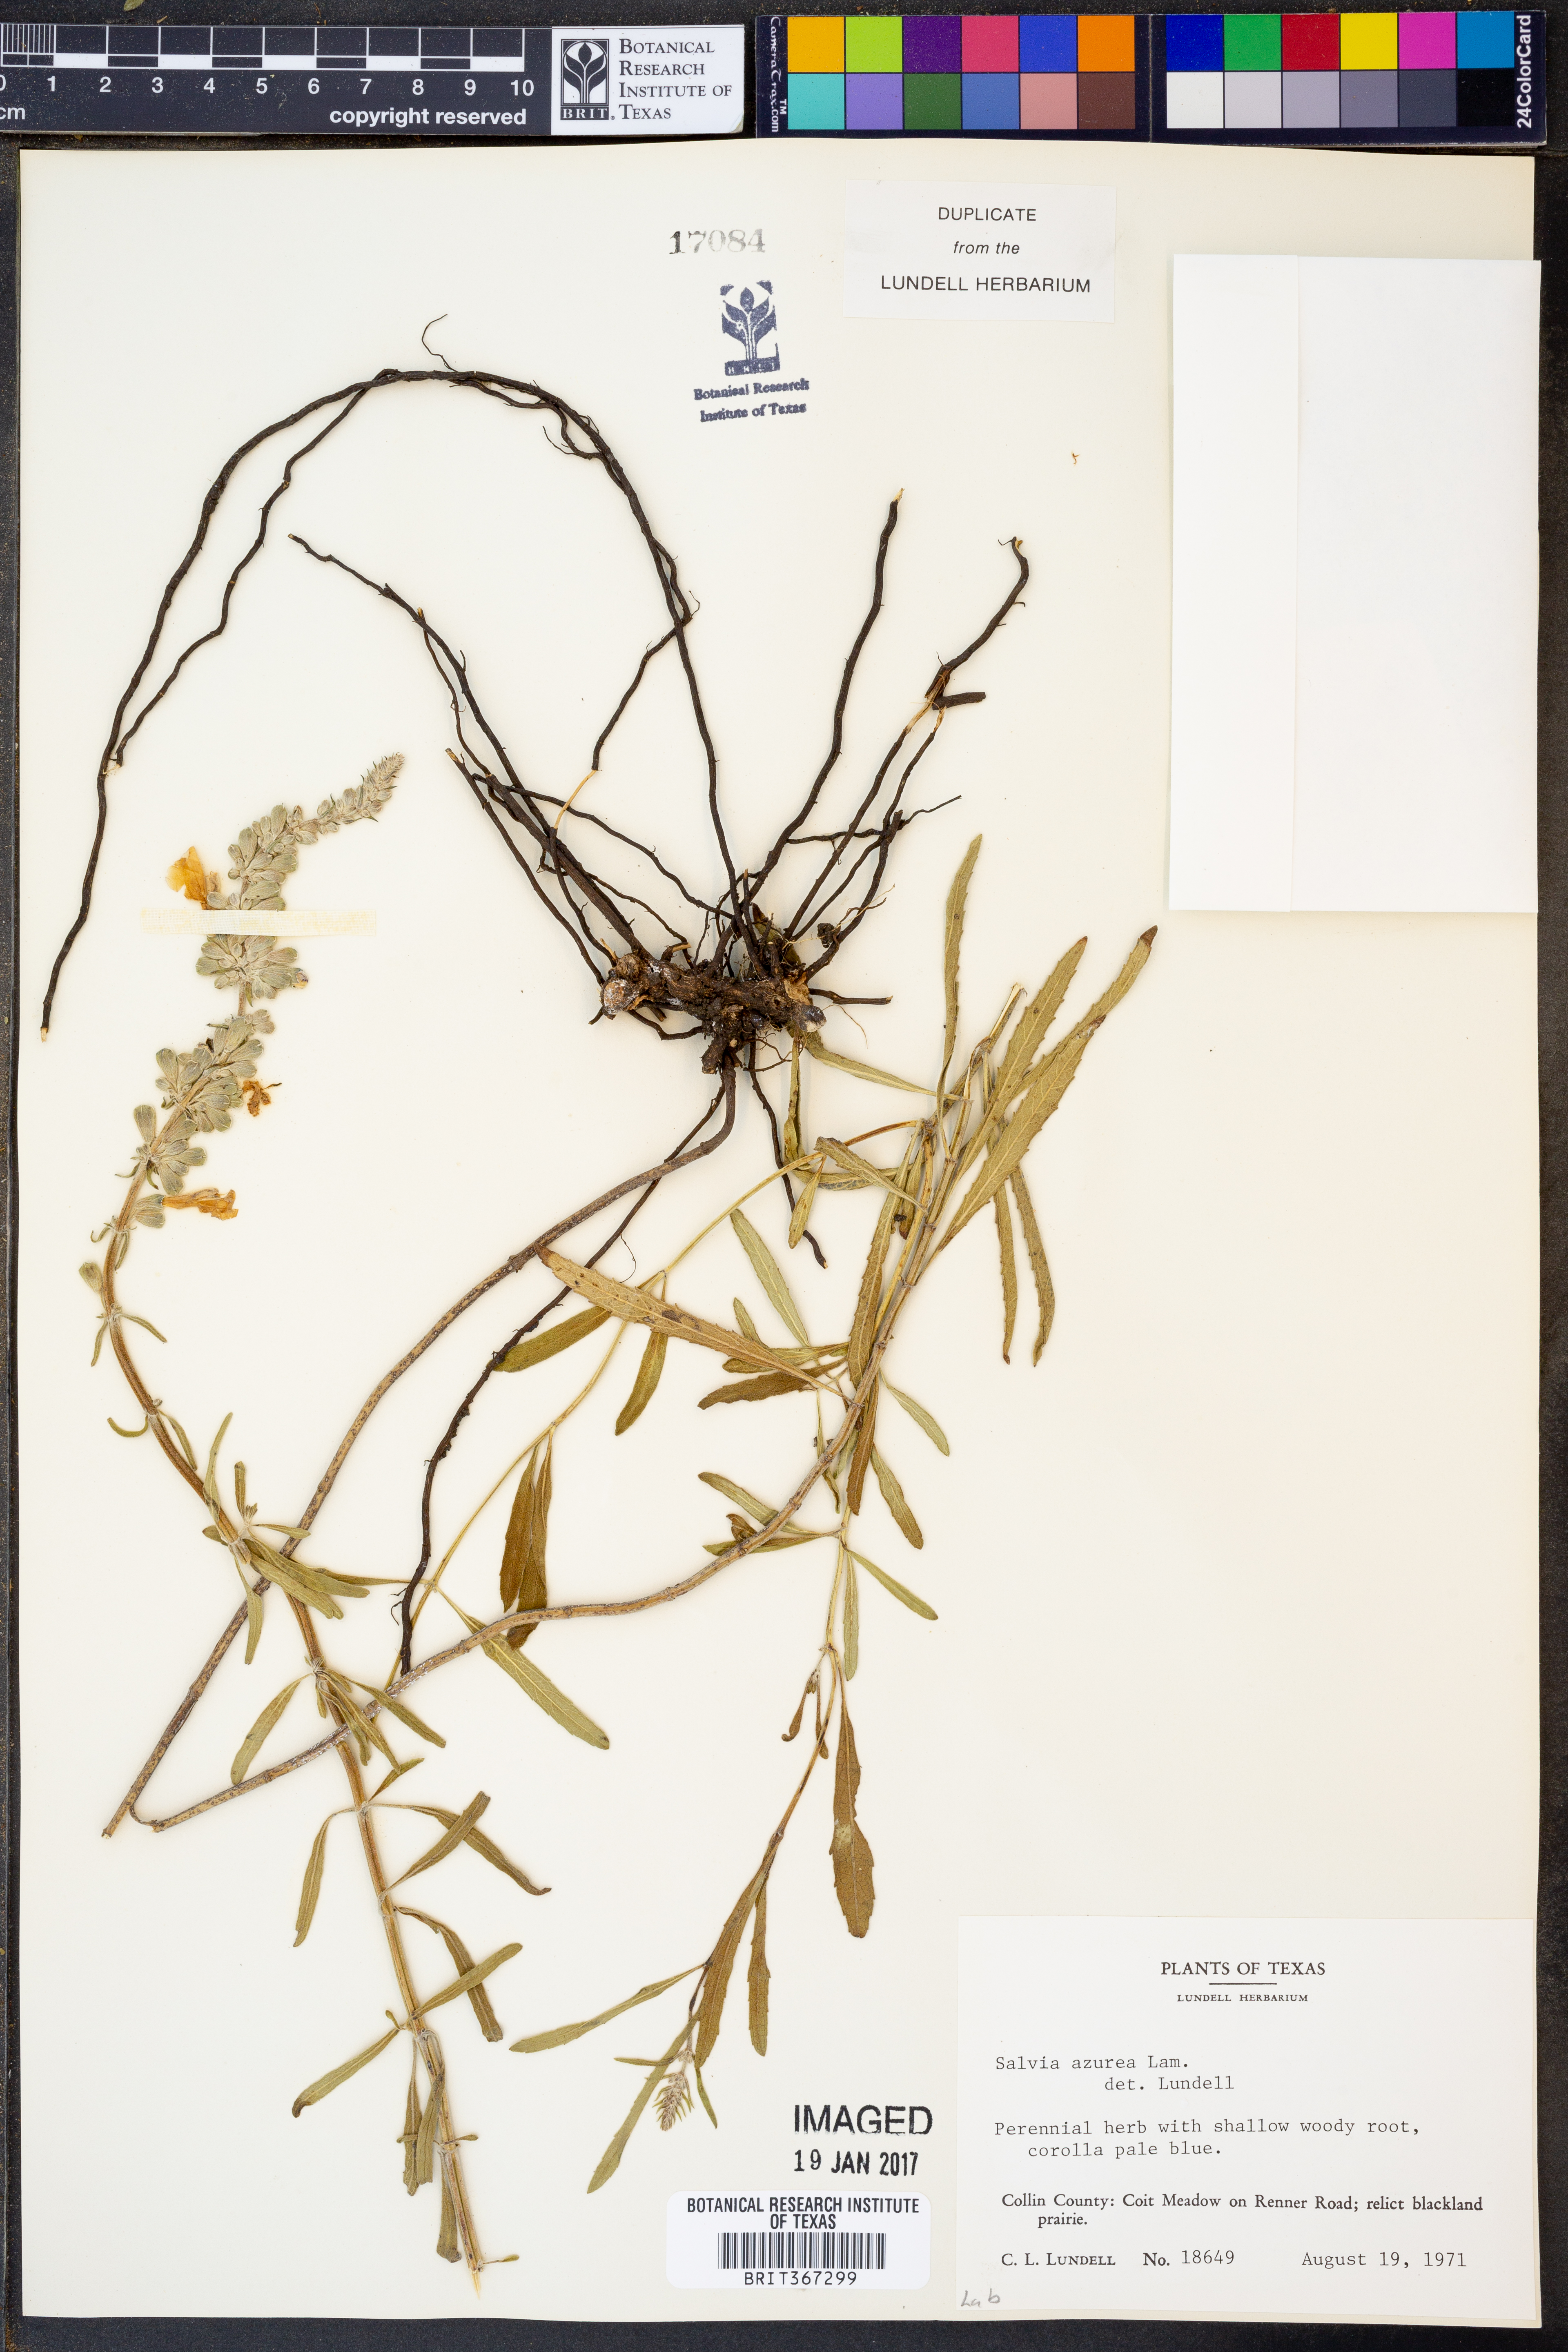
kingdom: Plantae
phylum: Tracheophyta
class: Magnoliopsida
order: Lamiales
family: Lamiaceae
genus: Salvia
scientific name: Salvia azurea
